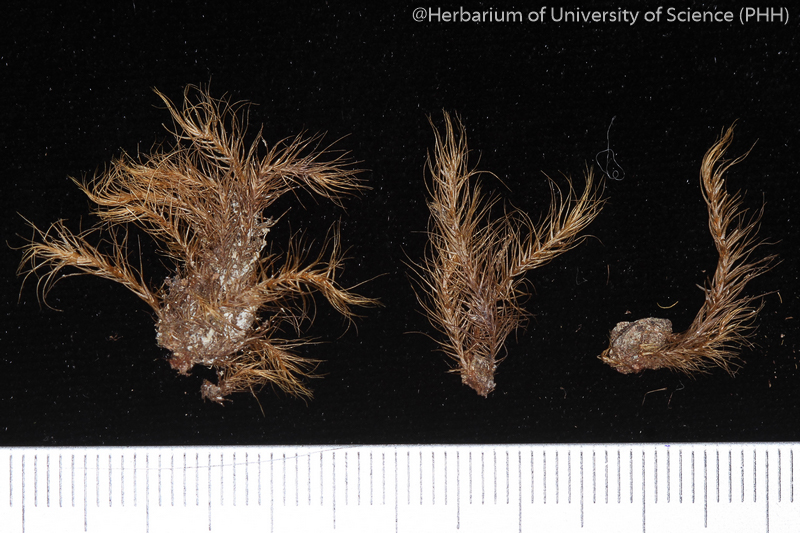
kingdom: Plantae
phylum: Bryophyta
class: Bryopsida
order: Dicranales
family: Dicranaceae
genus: Dicranum
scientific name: Dicranum psathyrum
